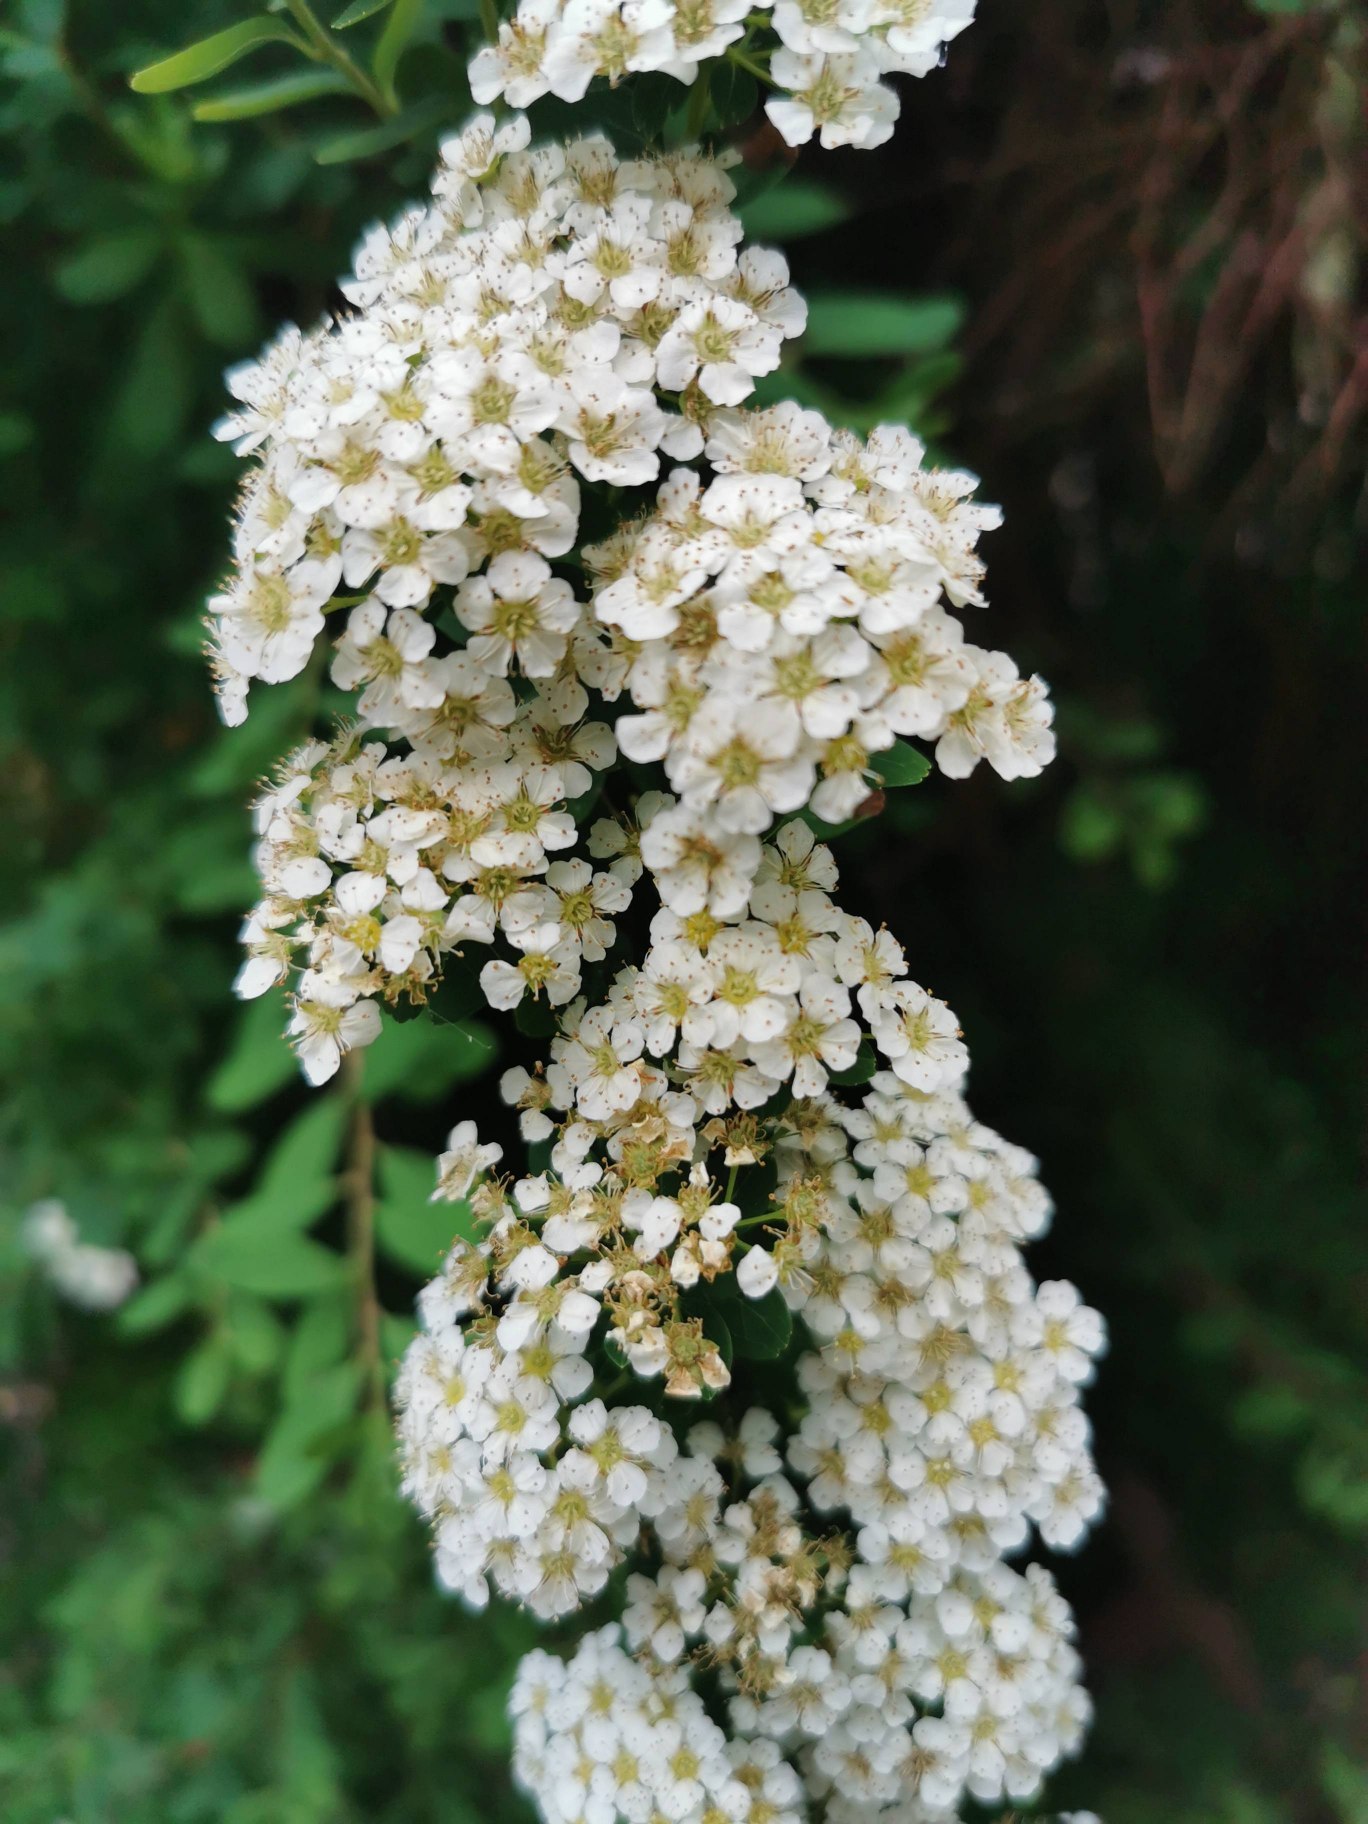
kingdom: Plantae
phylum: Tracheophyta
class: Magnoliopsida
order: Rosales
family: Rosaceae
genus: Spiraea
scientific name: Spiraea
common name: Spiræaslægten
